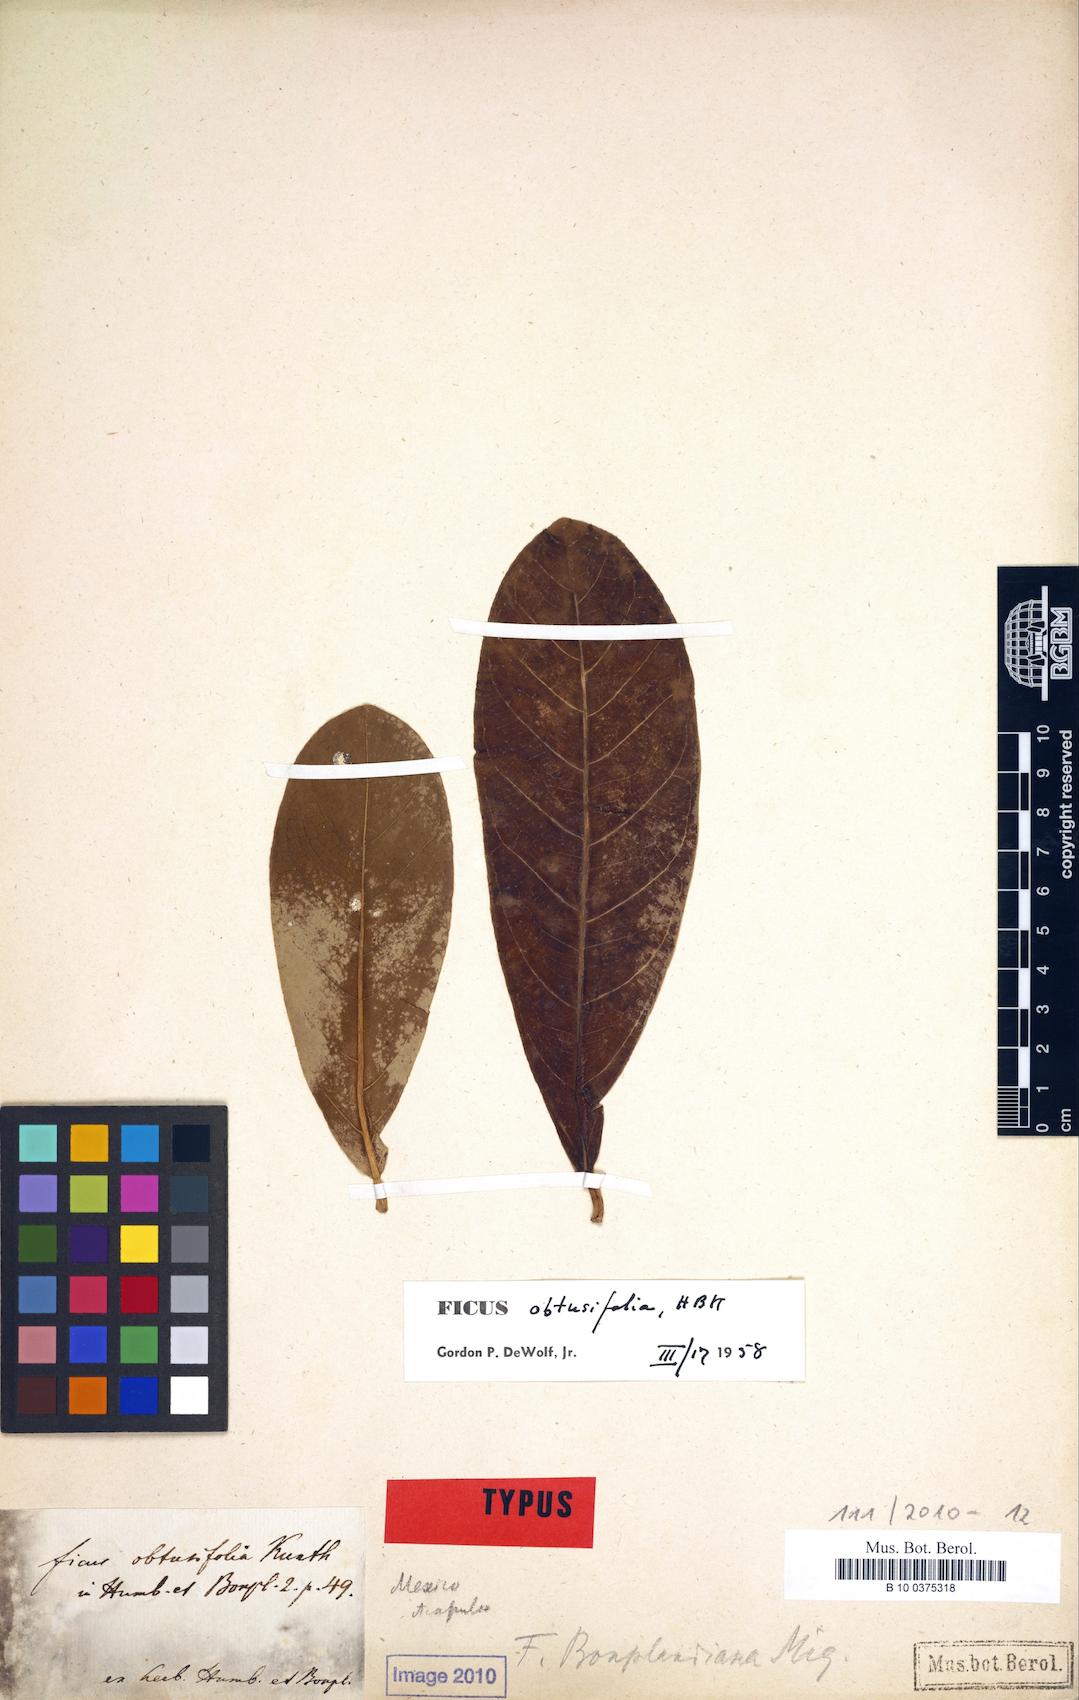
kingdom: Plantae
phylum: Tracheophyta
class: Magnoliopsida
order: Rosales
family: Moraceae
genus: Ficus
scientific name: Ficus obtusifolia
